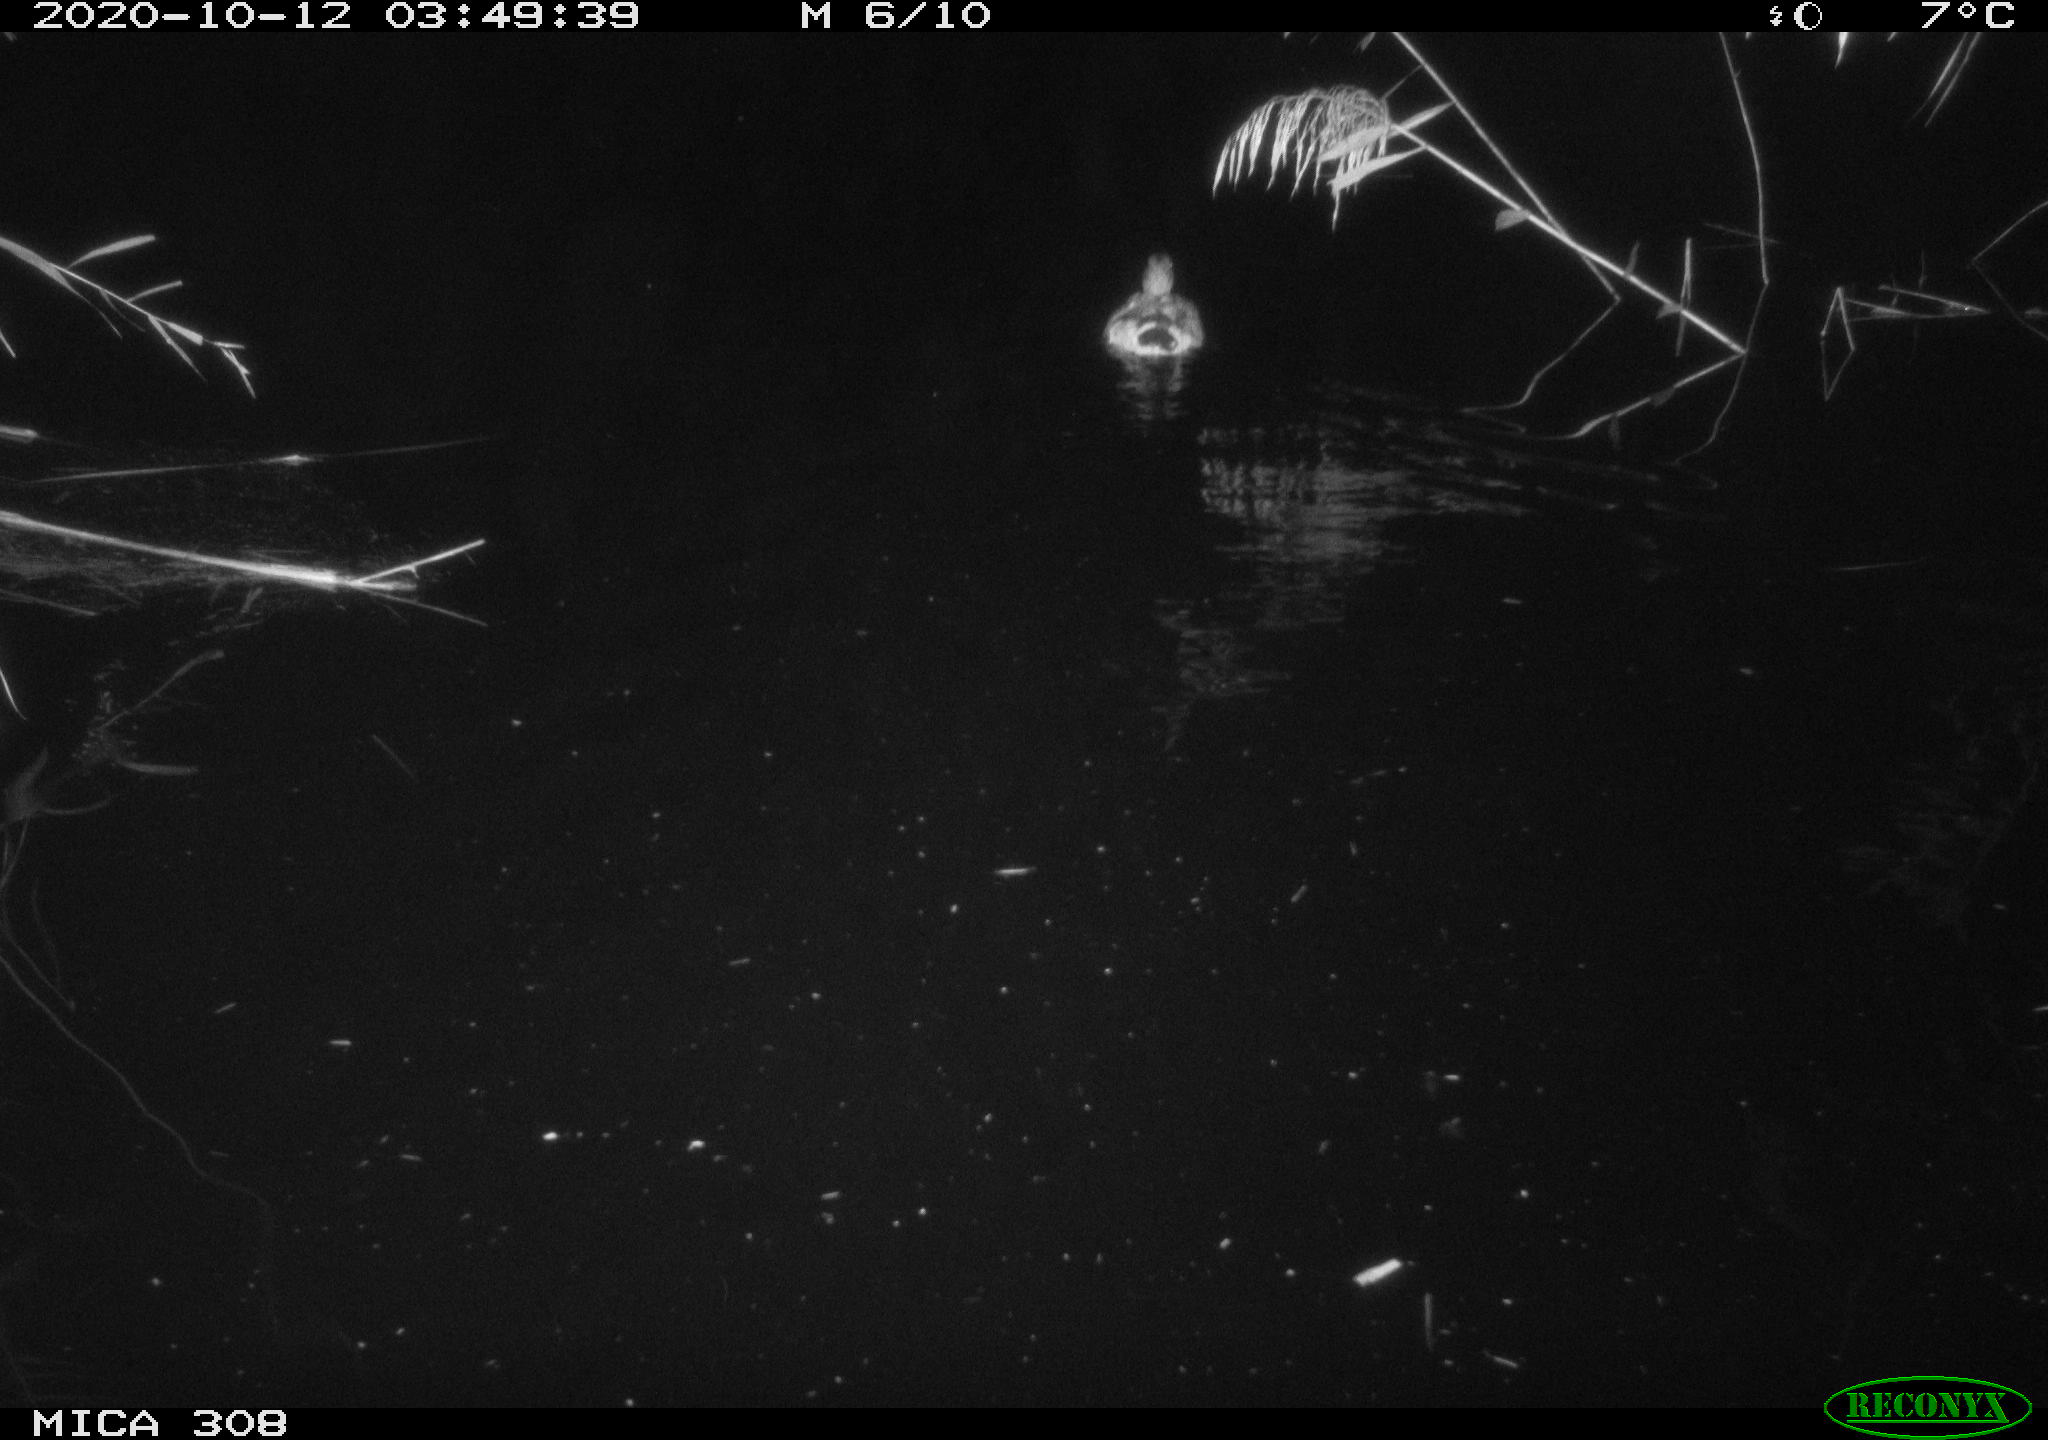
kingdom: Animalia
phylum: Chordata
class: Aves
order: Anseriformes
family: Anatidae
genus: Anas
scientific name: Anas platyrhynchos
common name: Mallard
